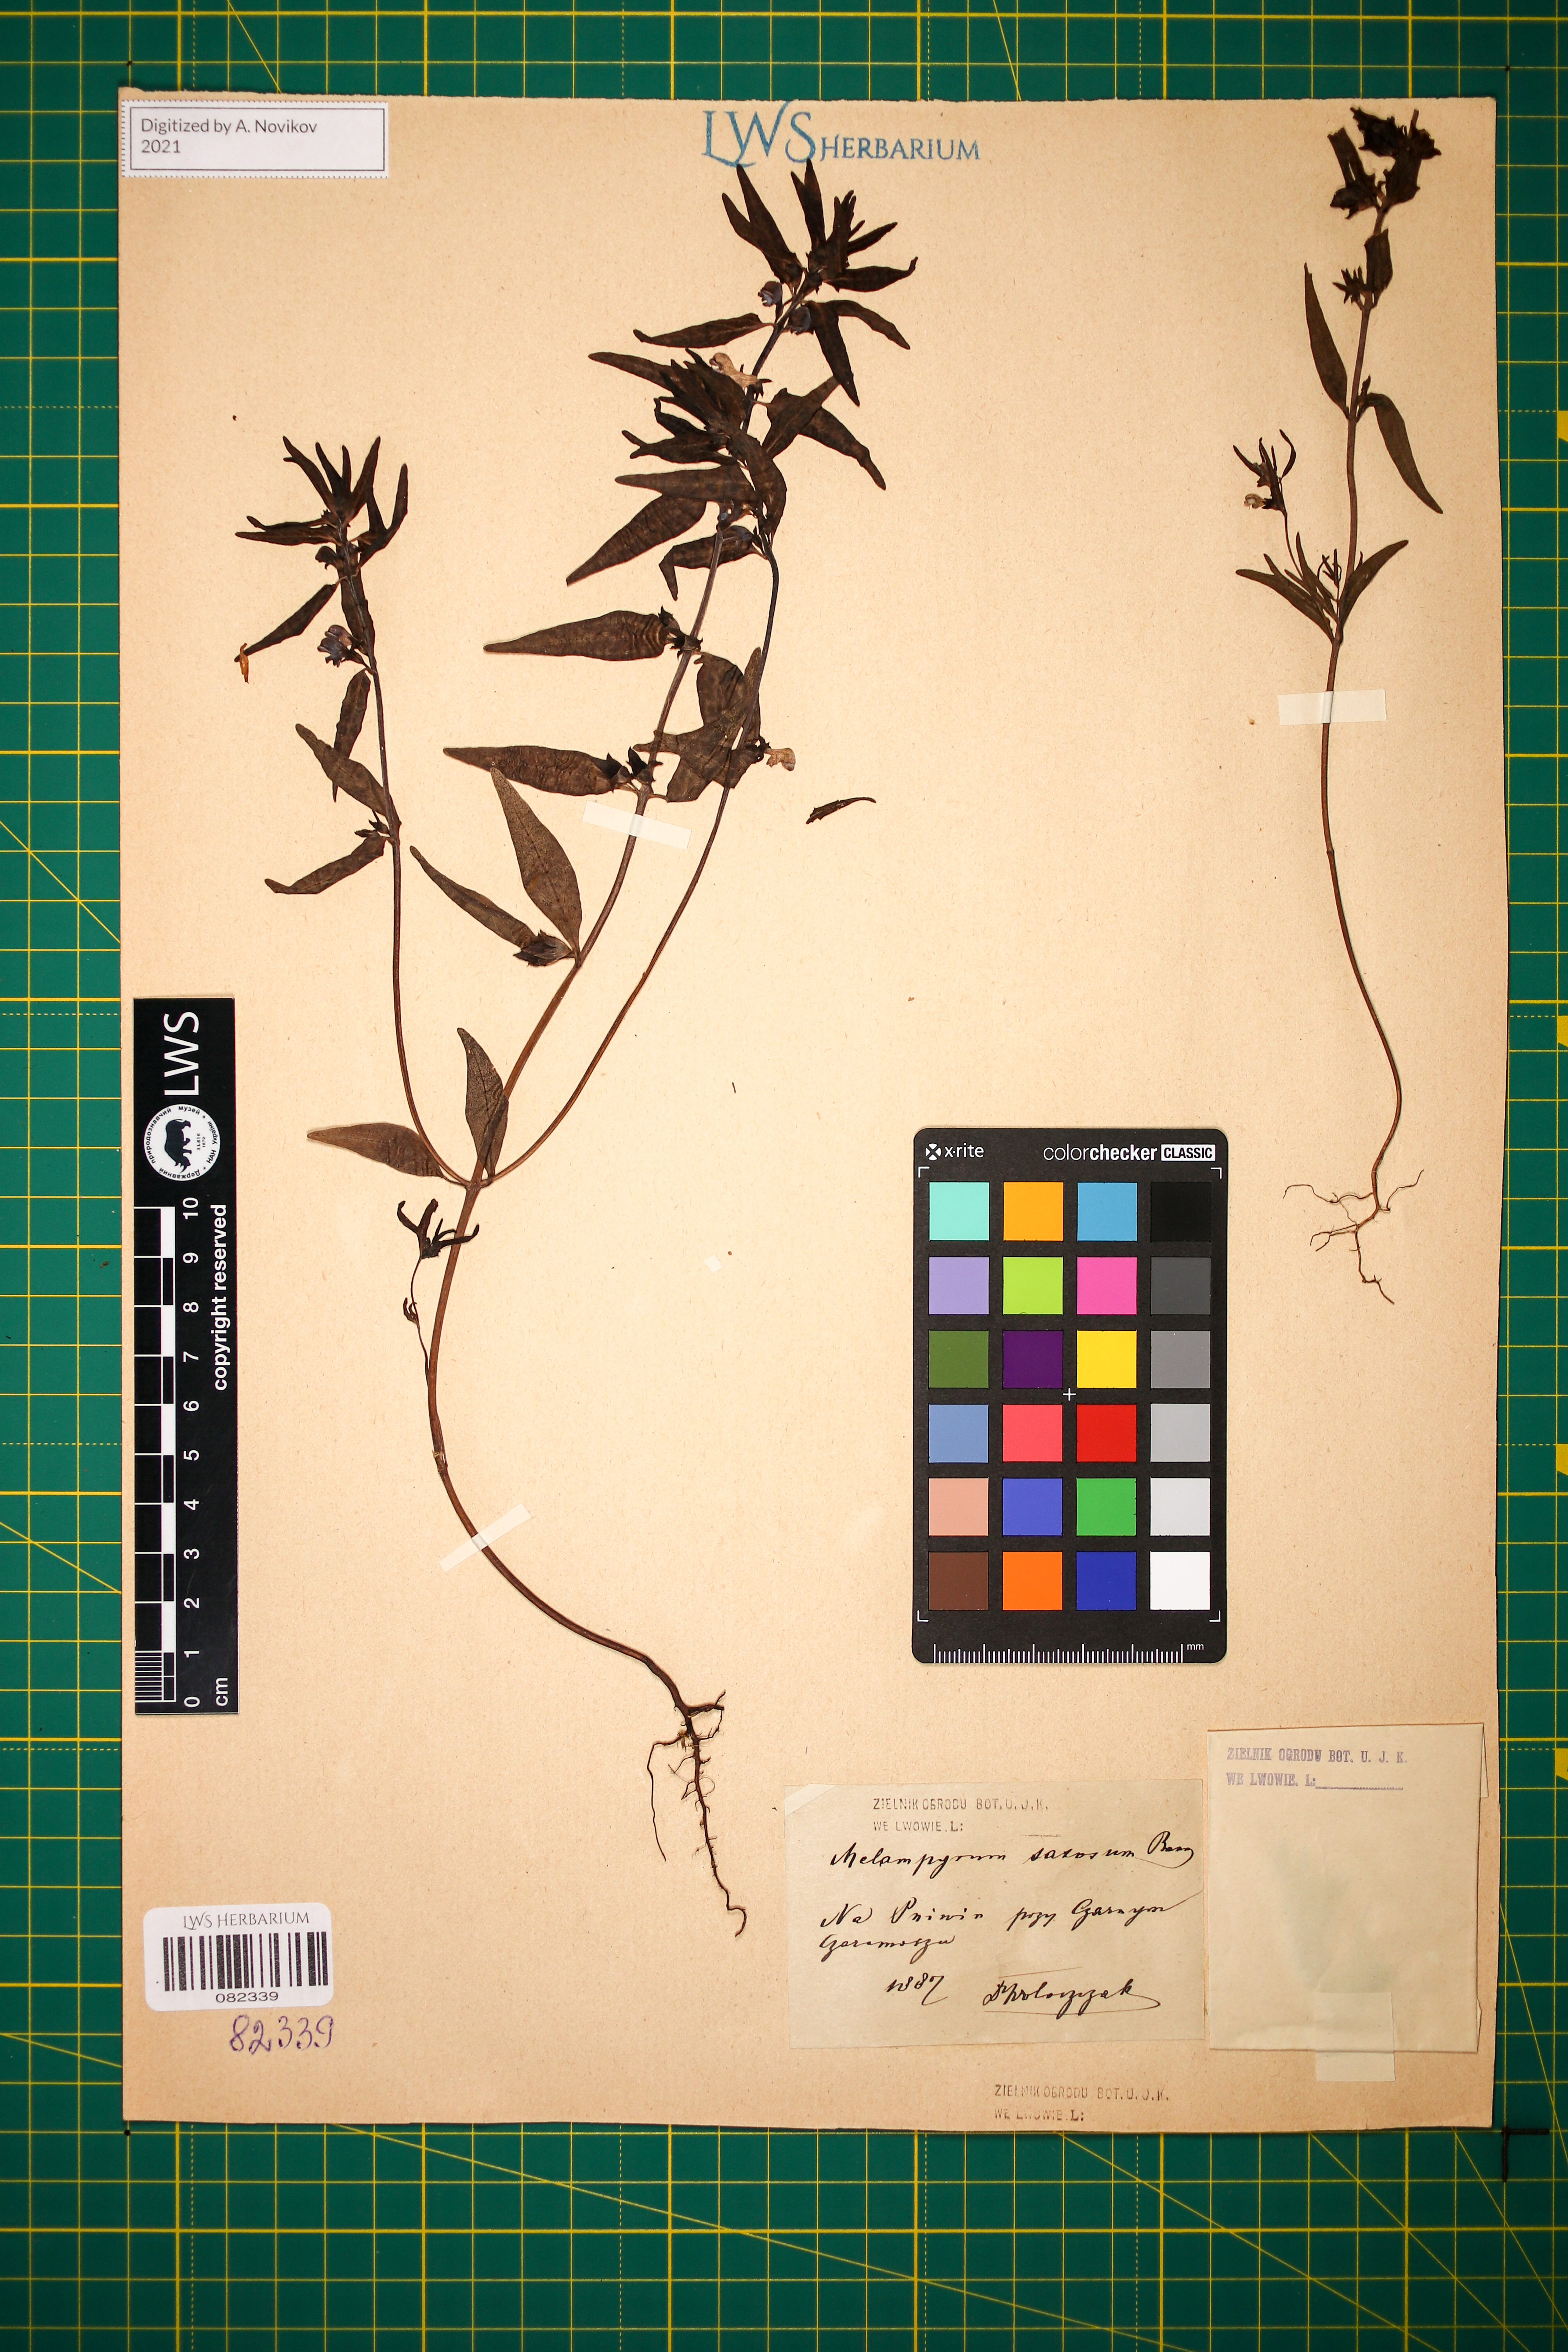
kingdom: Plantae
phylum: Tracheophyta
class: Magnoliopsida
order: Lamiales
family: Orobanchaceae
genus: Melampyrum
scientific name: Melampyrum saxosum
